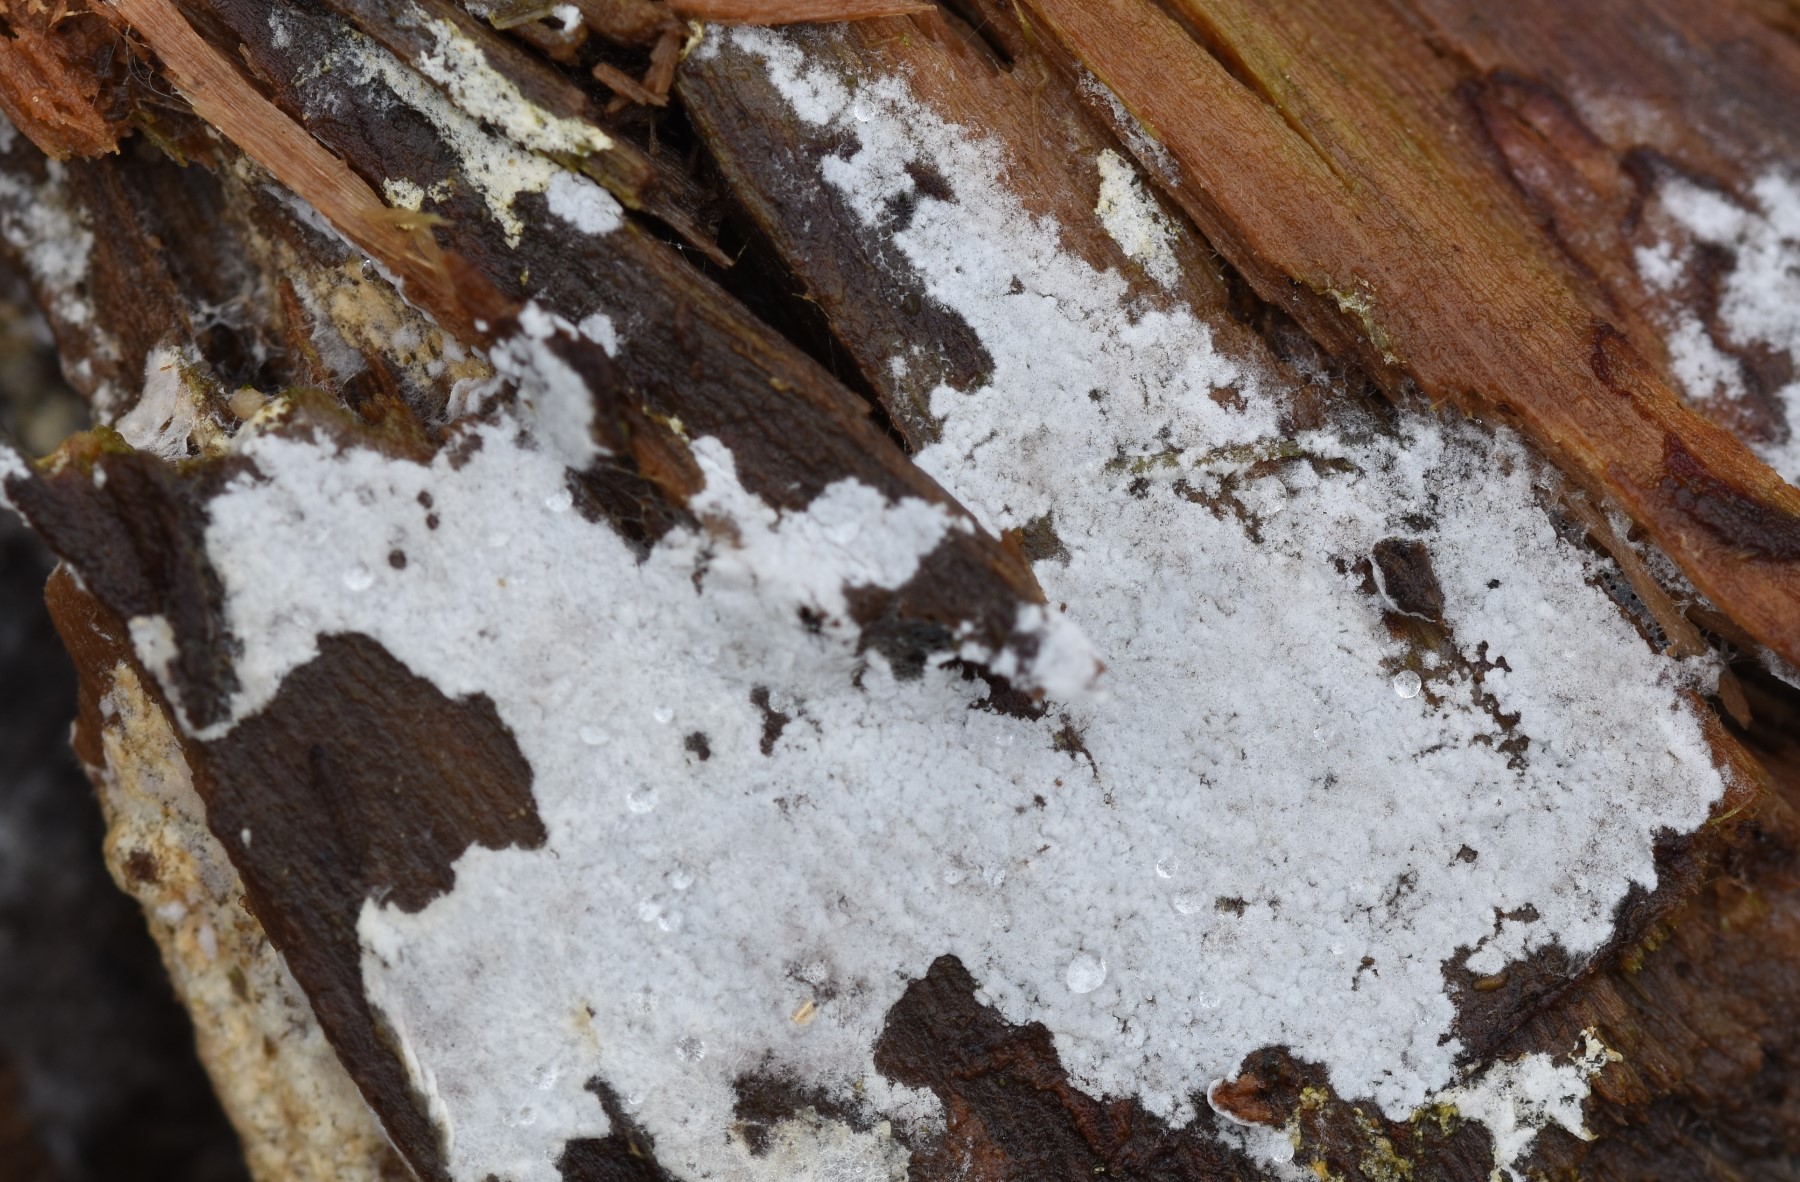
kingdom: Fungi
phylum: Basidiomycota
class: Agaricomycetes
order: Atheliales
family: Atheliaceae
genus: Athelia
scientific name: Athelia epiphylla
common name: almindelig barkhinde
